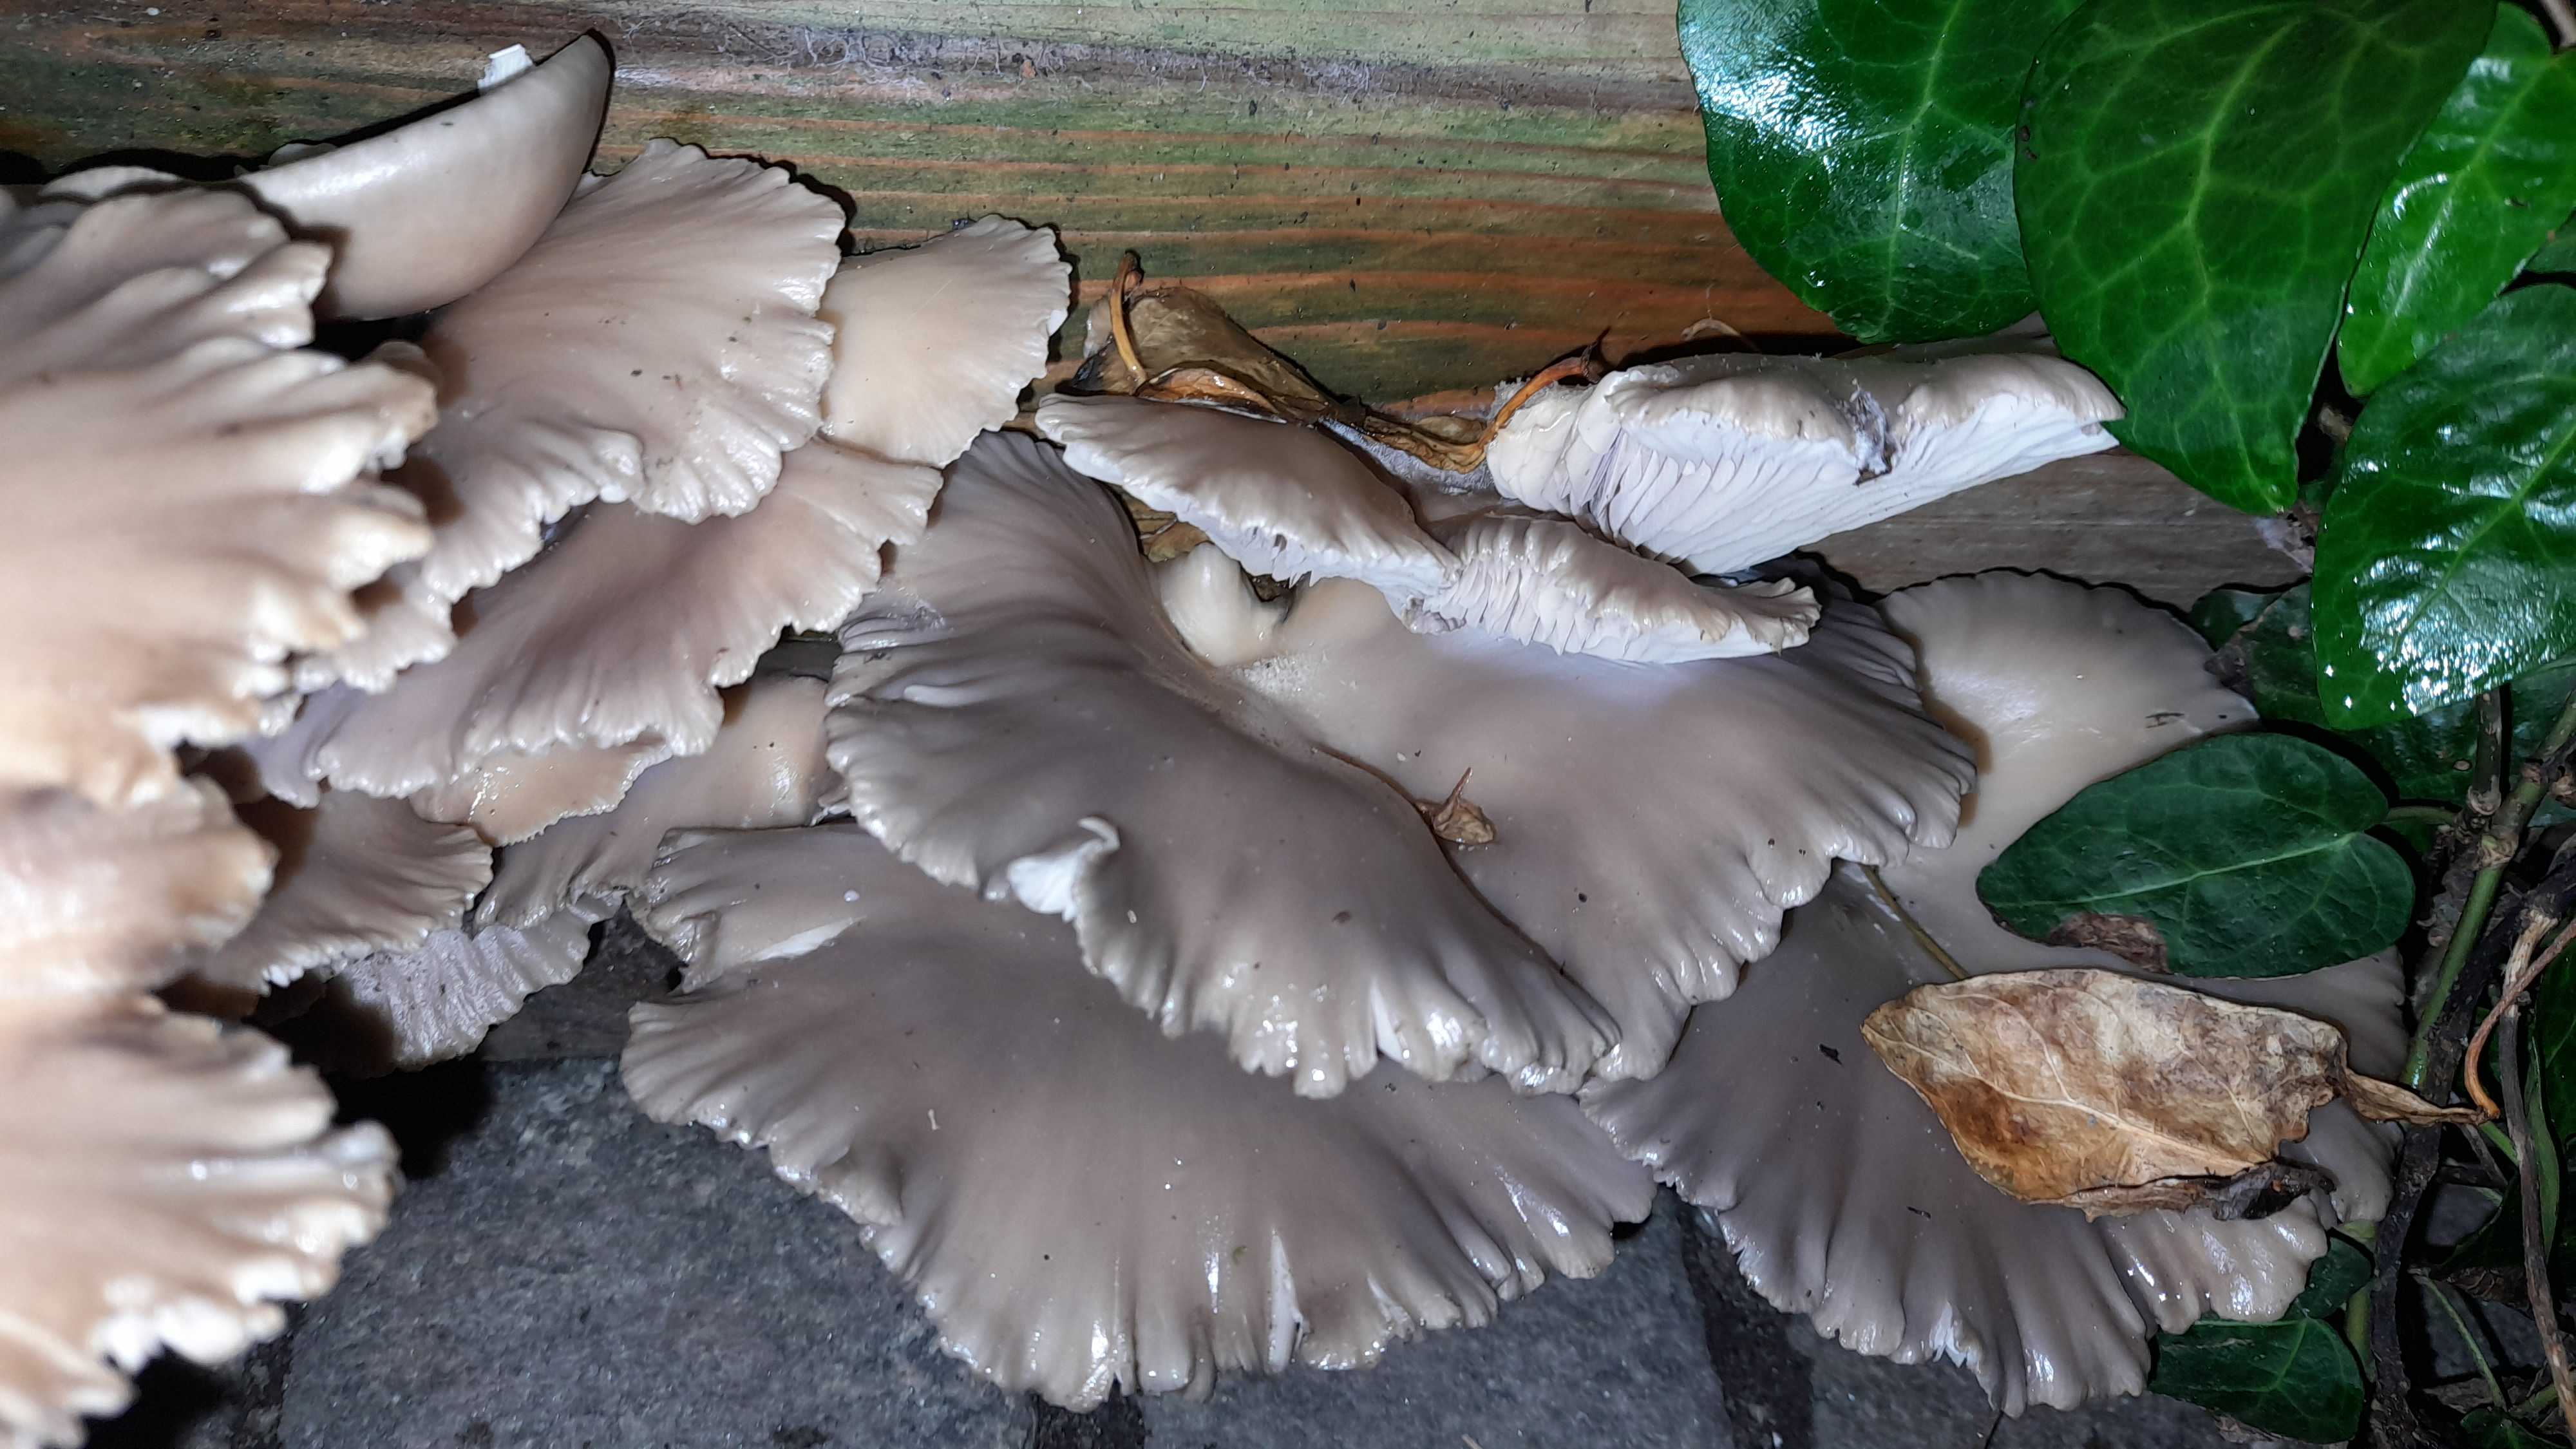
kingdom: Fungi
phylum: Basidiomycota
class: Agaricomycetes
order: Agaricales
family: Pleurotaceae
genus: Pleurotus
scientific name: Pleurotus ostreatus
